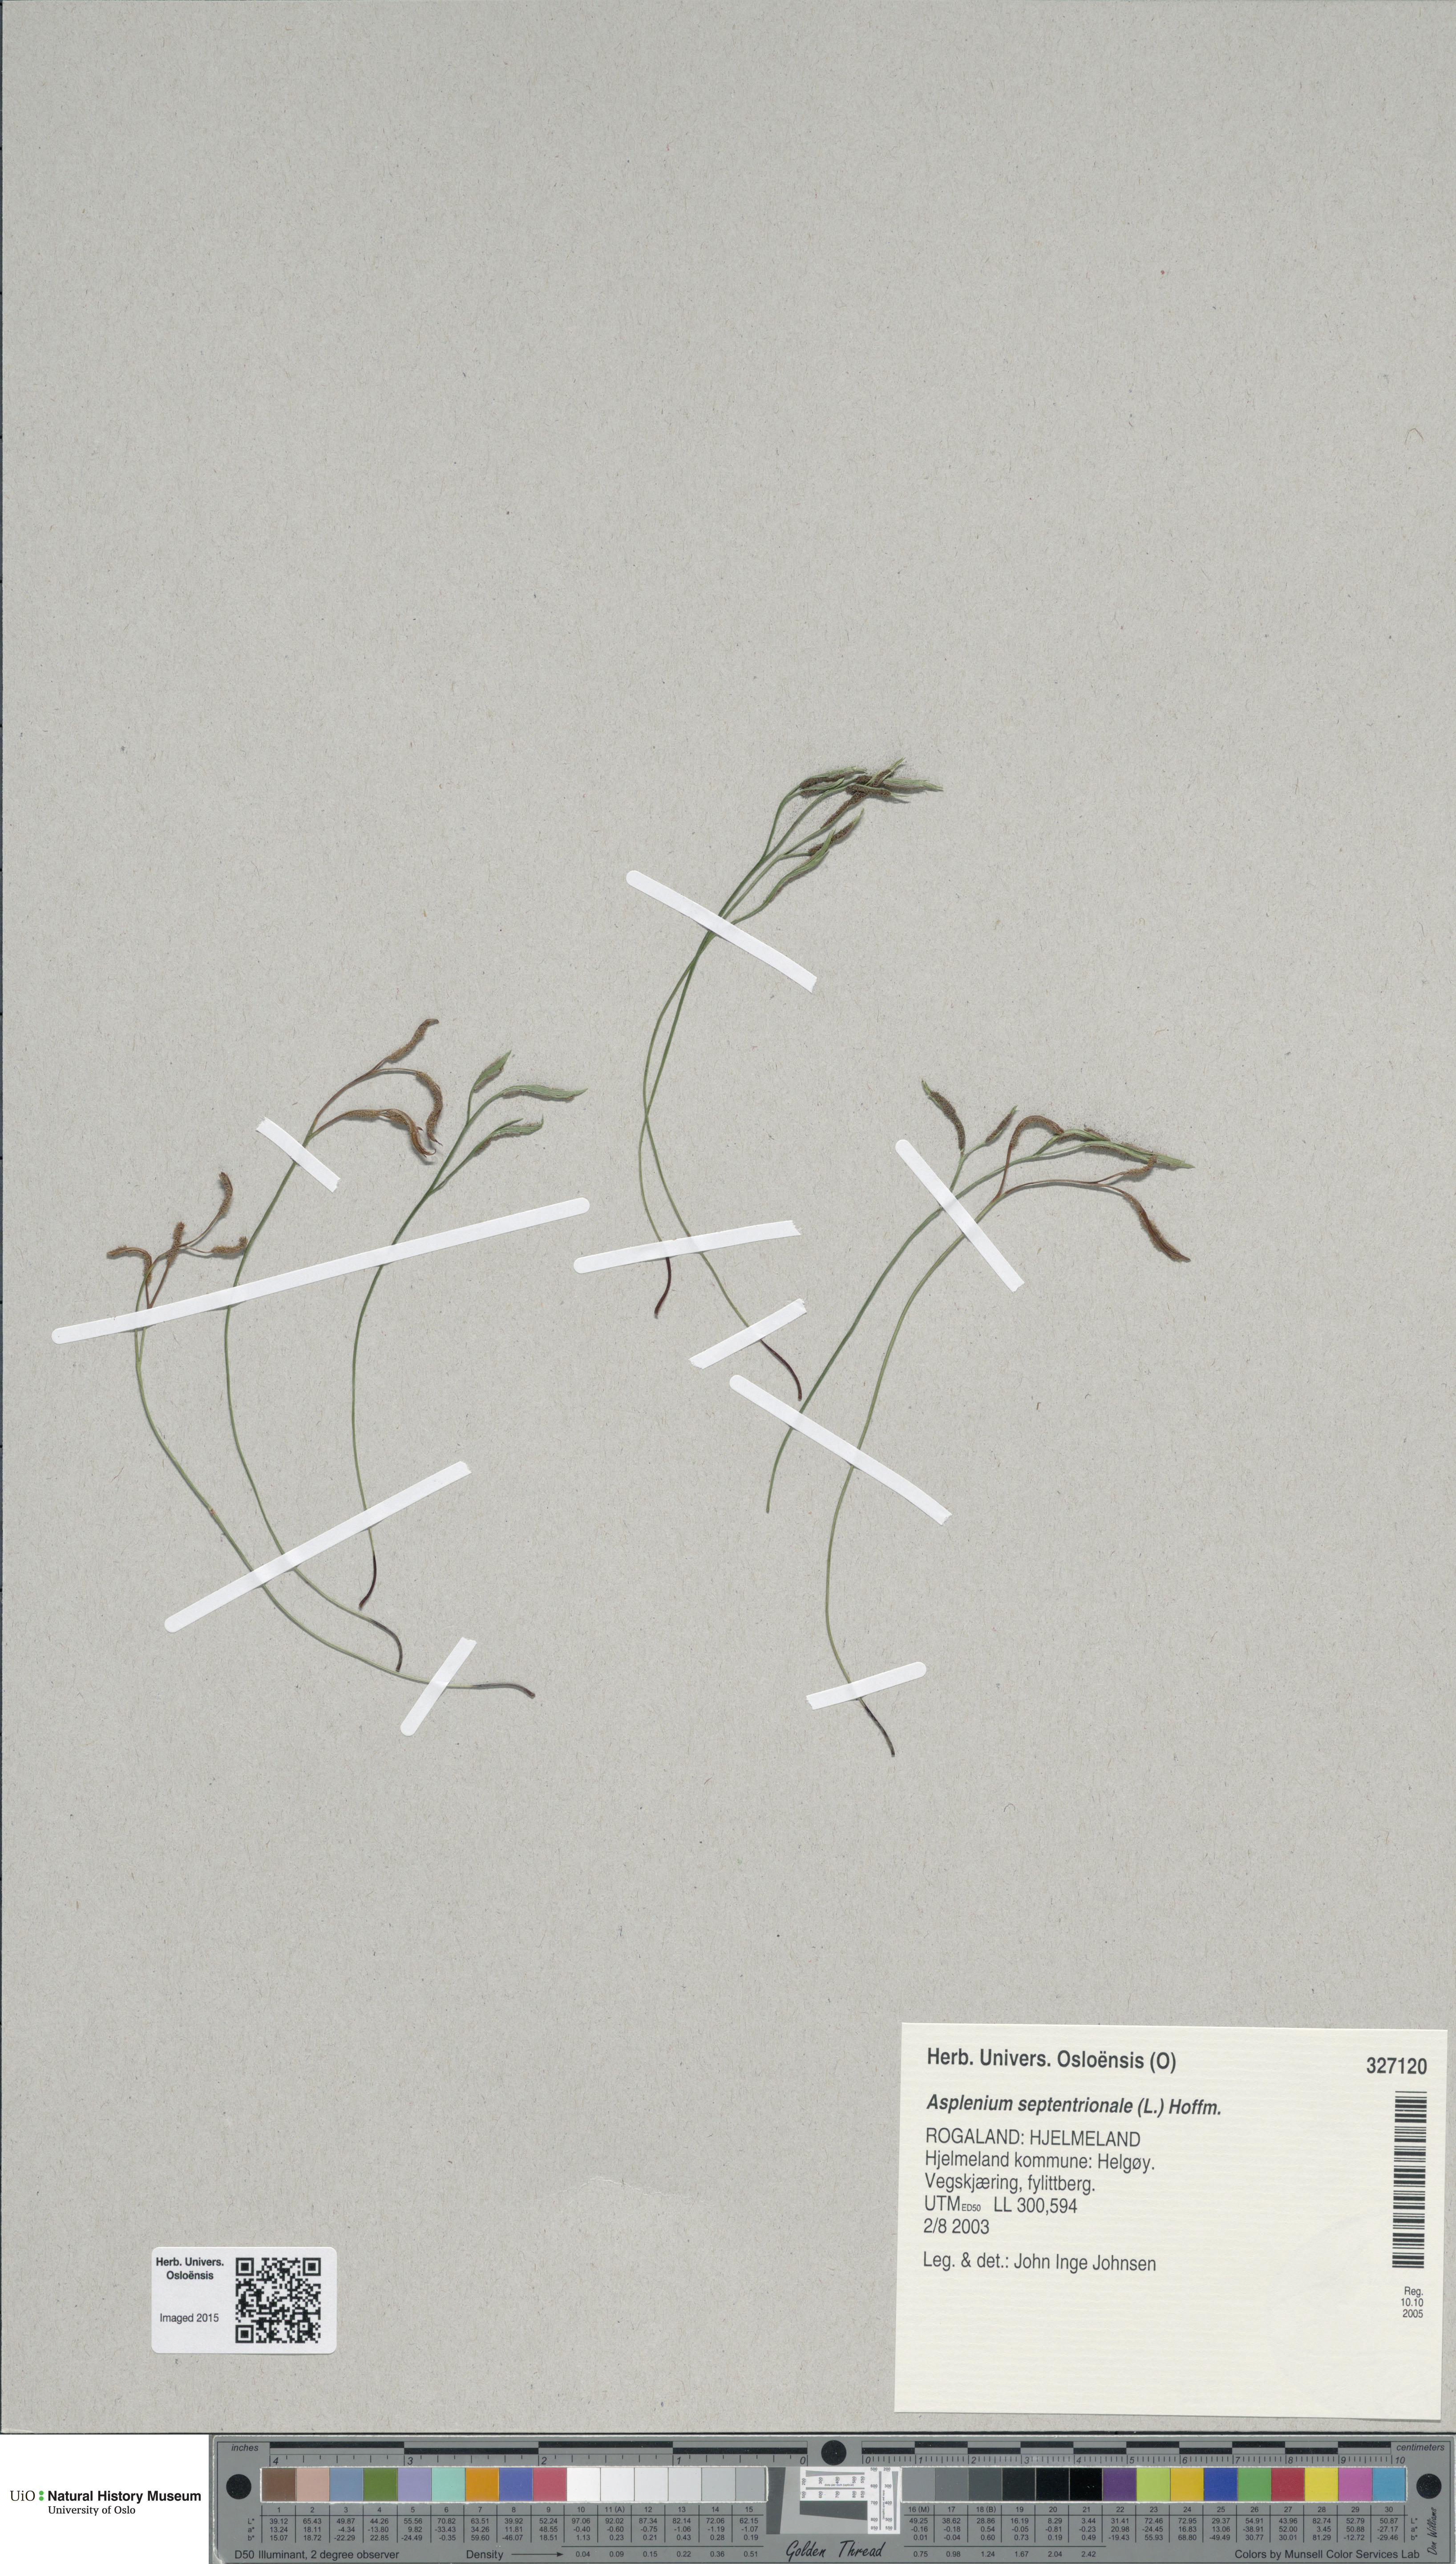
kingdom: Plantae
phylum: Tracheophyta
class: Polypodiopsida
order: Polypodiales
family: Aspleniaceae
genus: Asplenium
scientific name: Asplenium septentrionale
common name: Forked spleenwort
